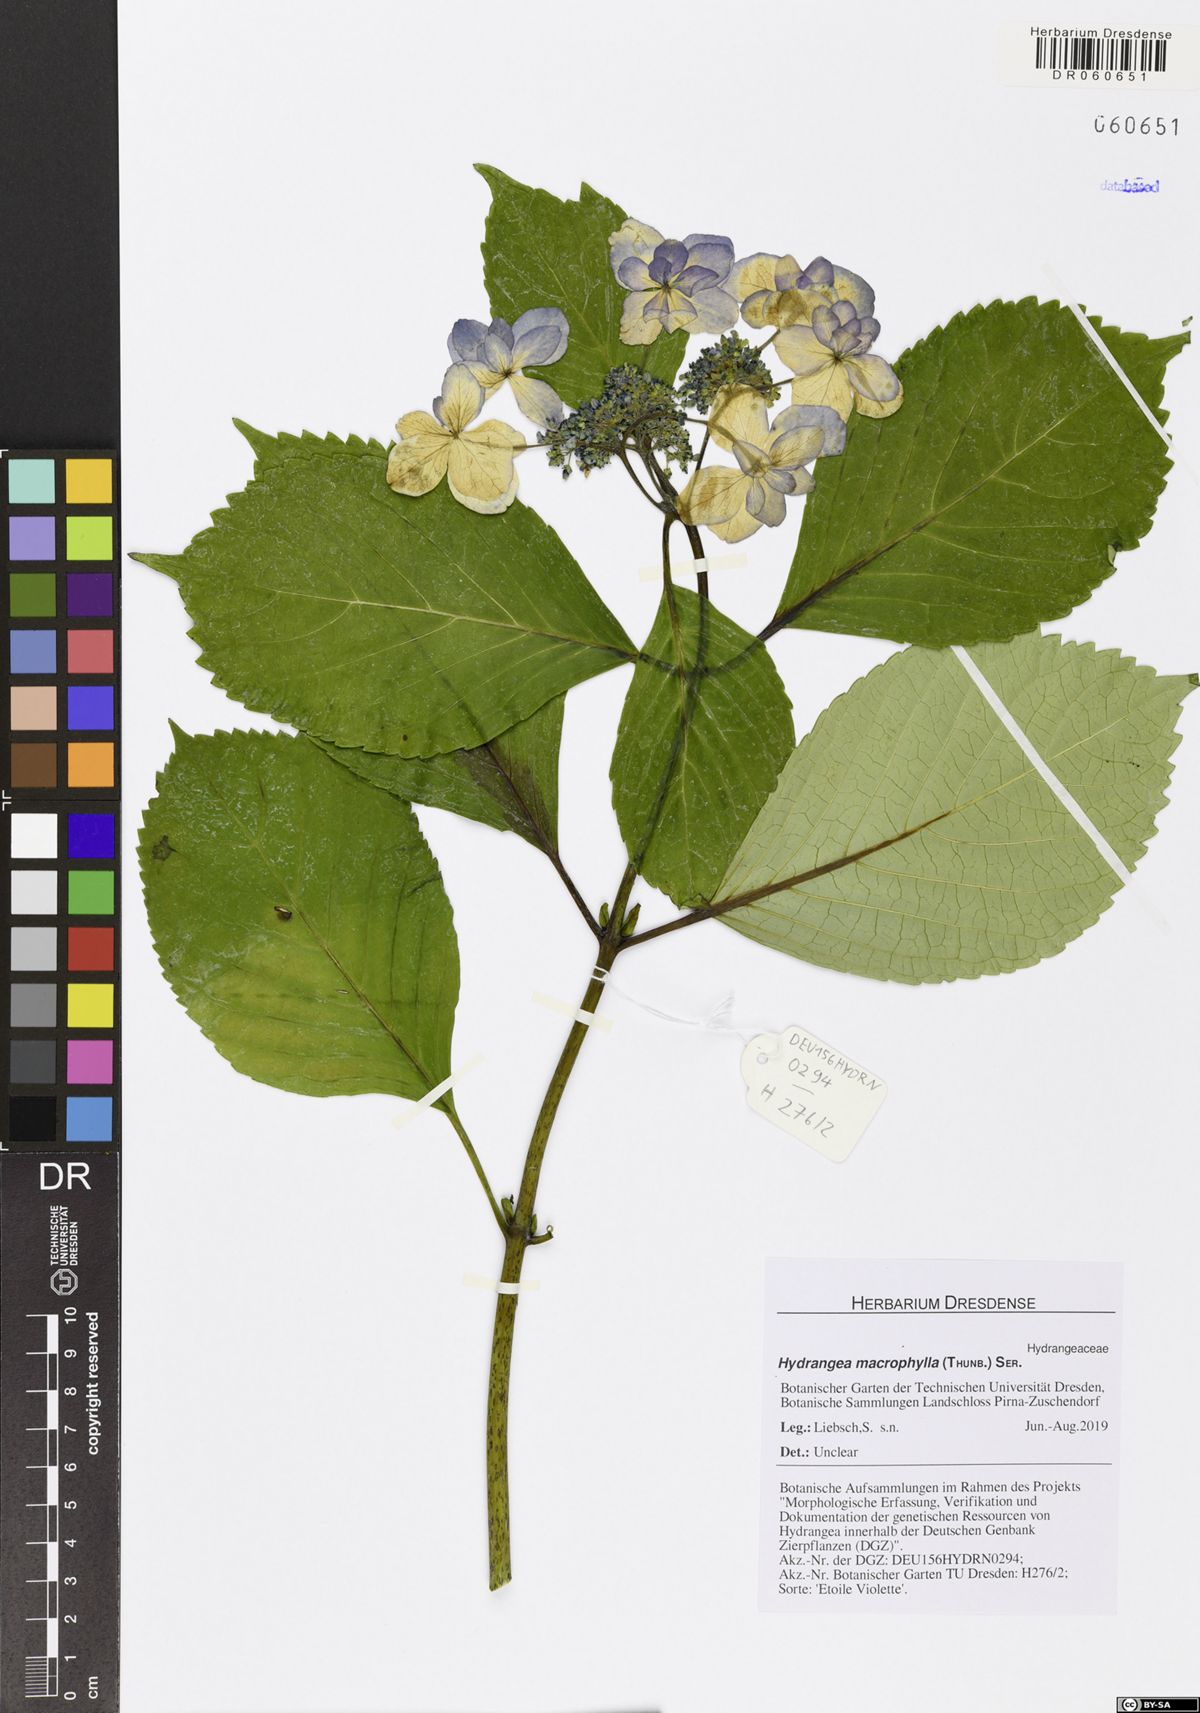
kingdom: Plantae
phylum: Tracheophyta
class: Magnoliopsida
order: Cornales
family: Hydrangeaceae
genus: Hydrangea
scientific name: Hydrangea macrophylla
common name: Hydrangea
